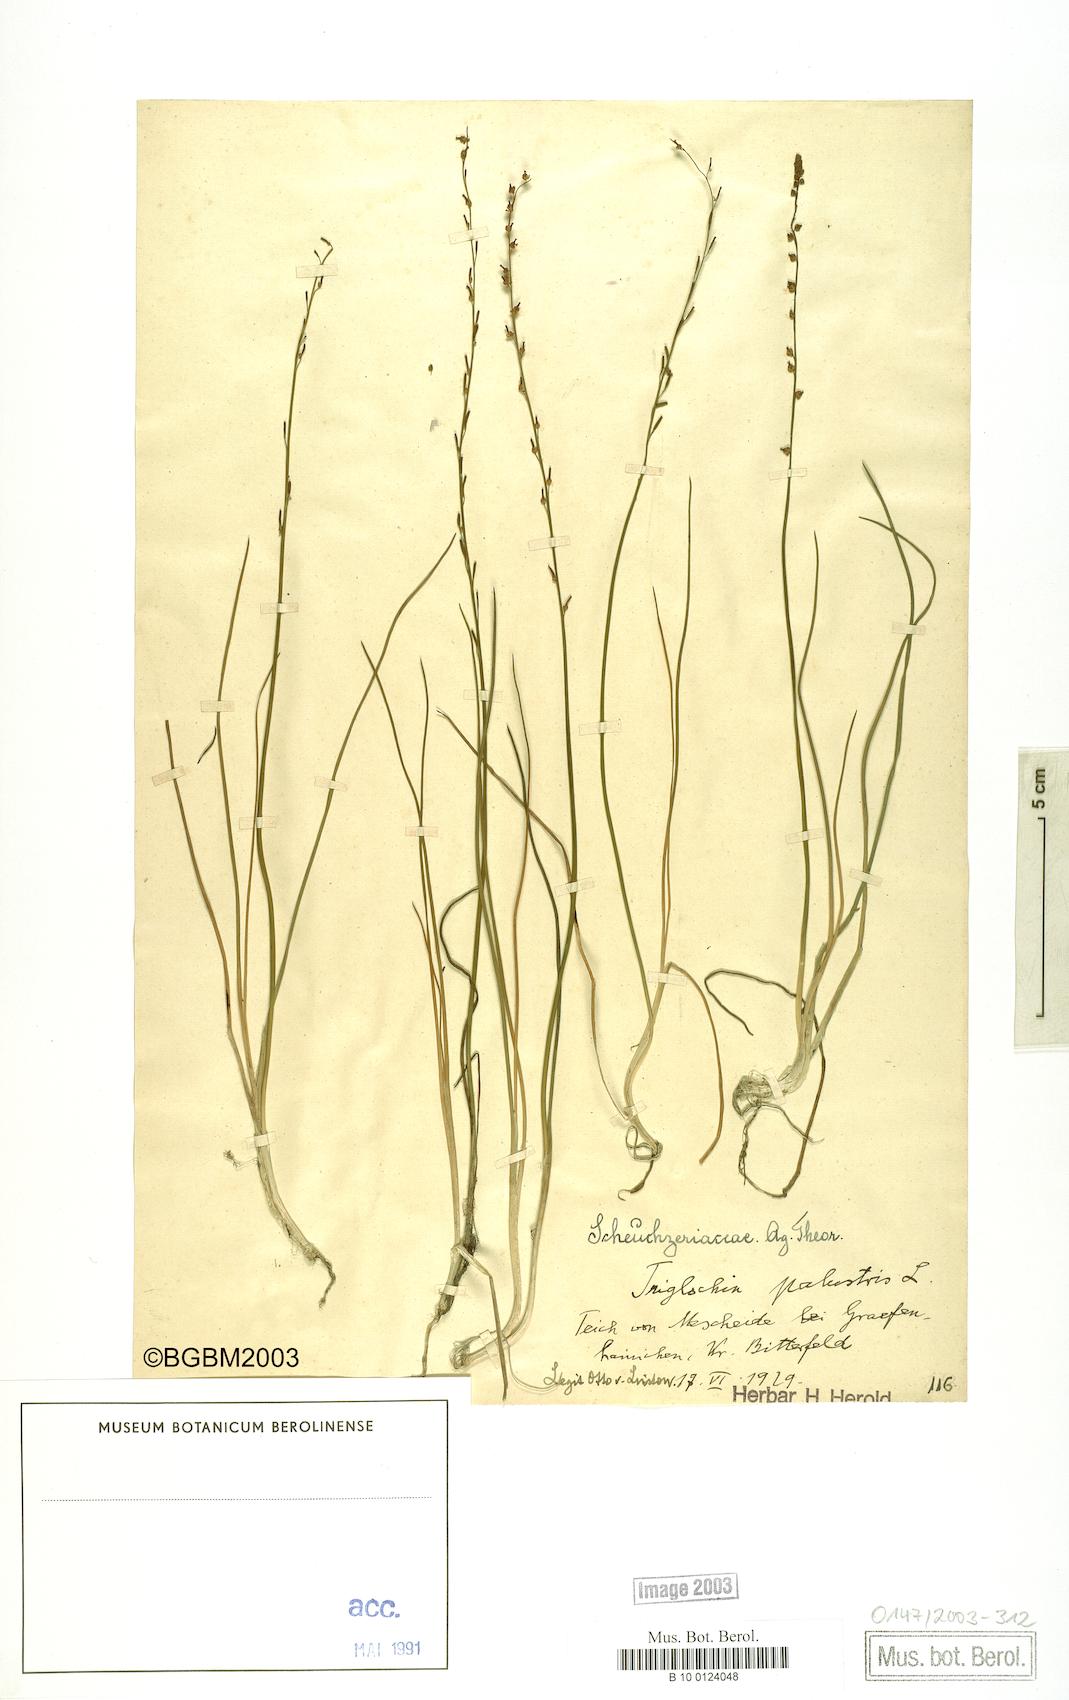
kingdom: Plantae
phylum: Tracheophyta
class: Liliopsida
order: Alismatales
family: Juncaginaceae
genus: Triglochin
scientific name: Triglochin palustris
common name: Marsh arrowgrass
